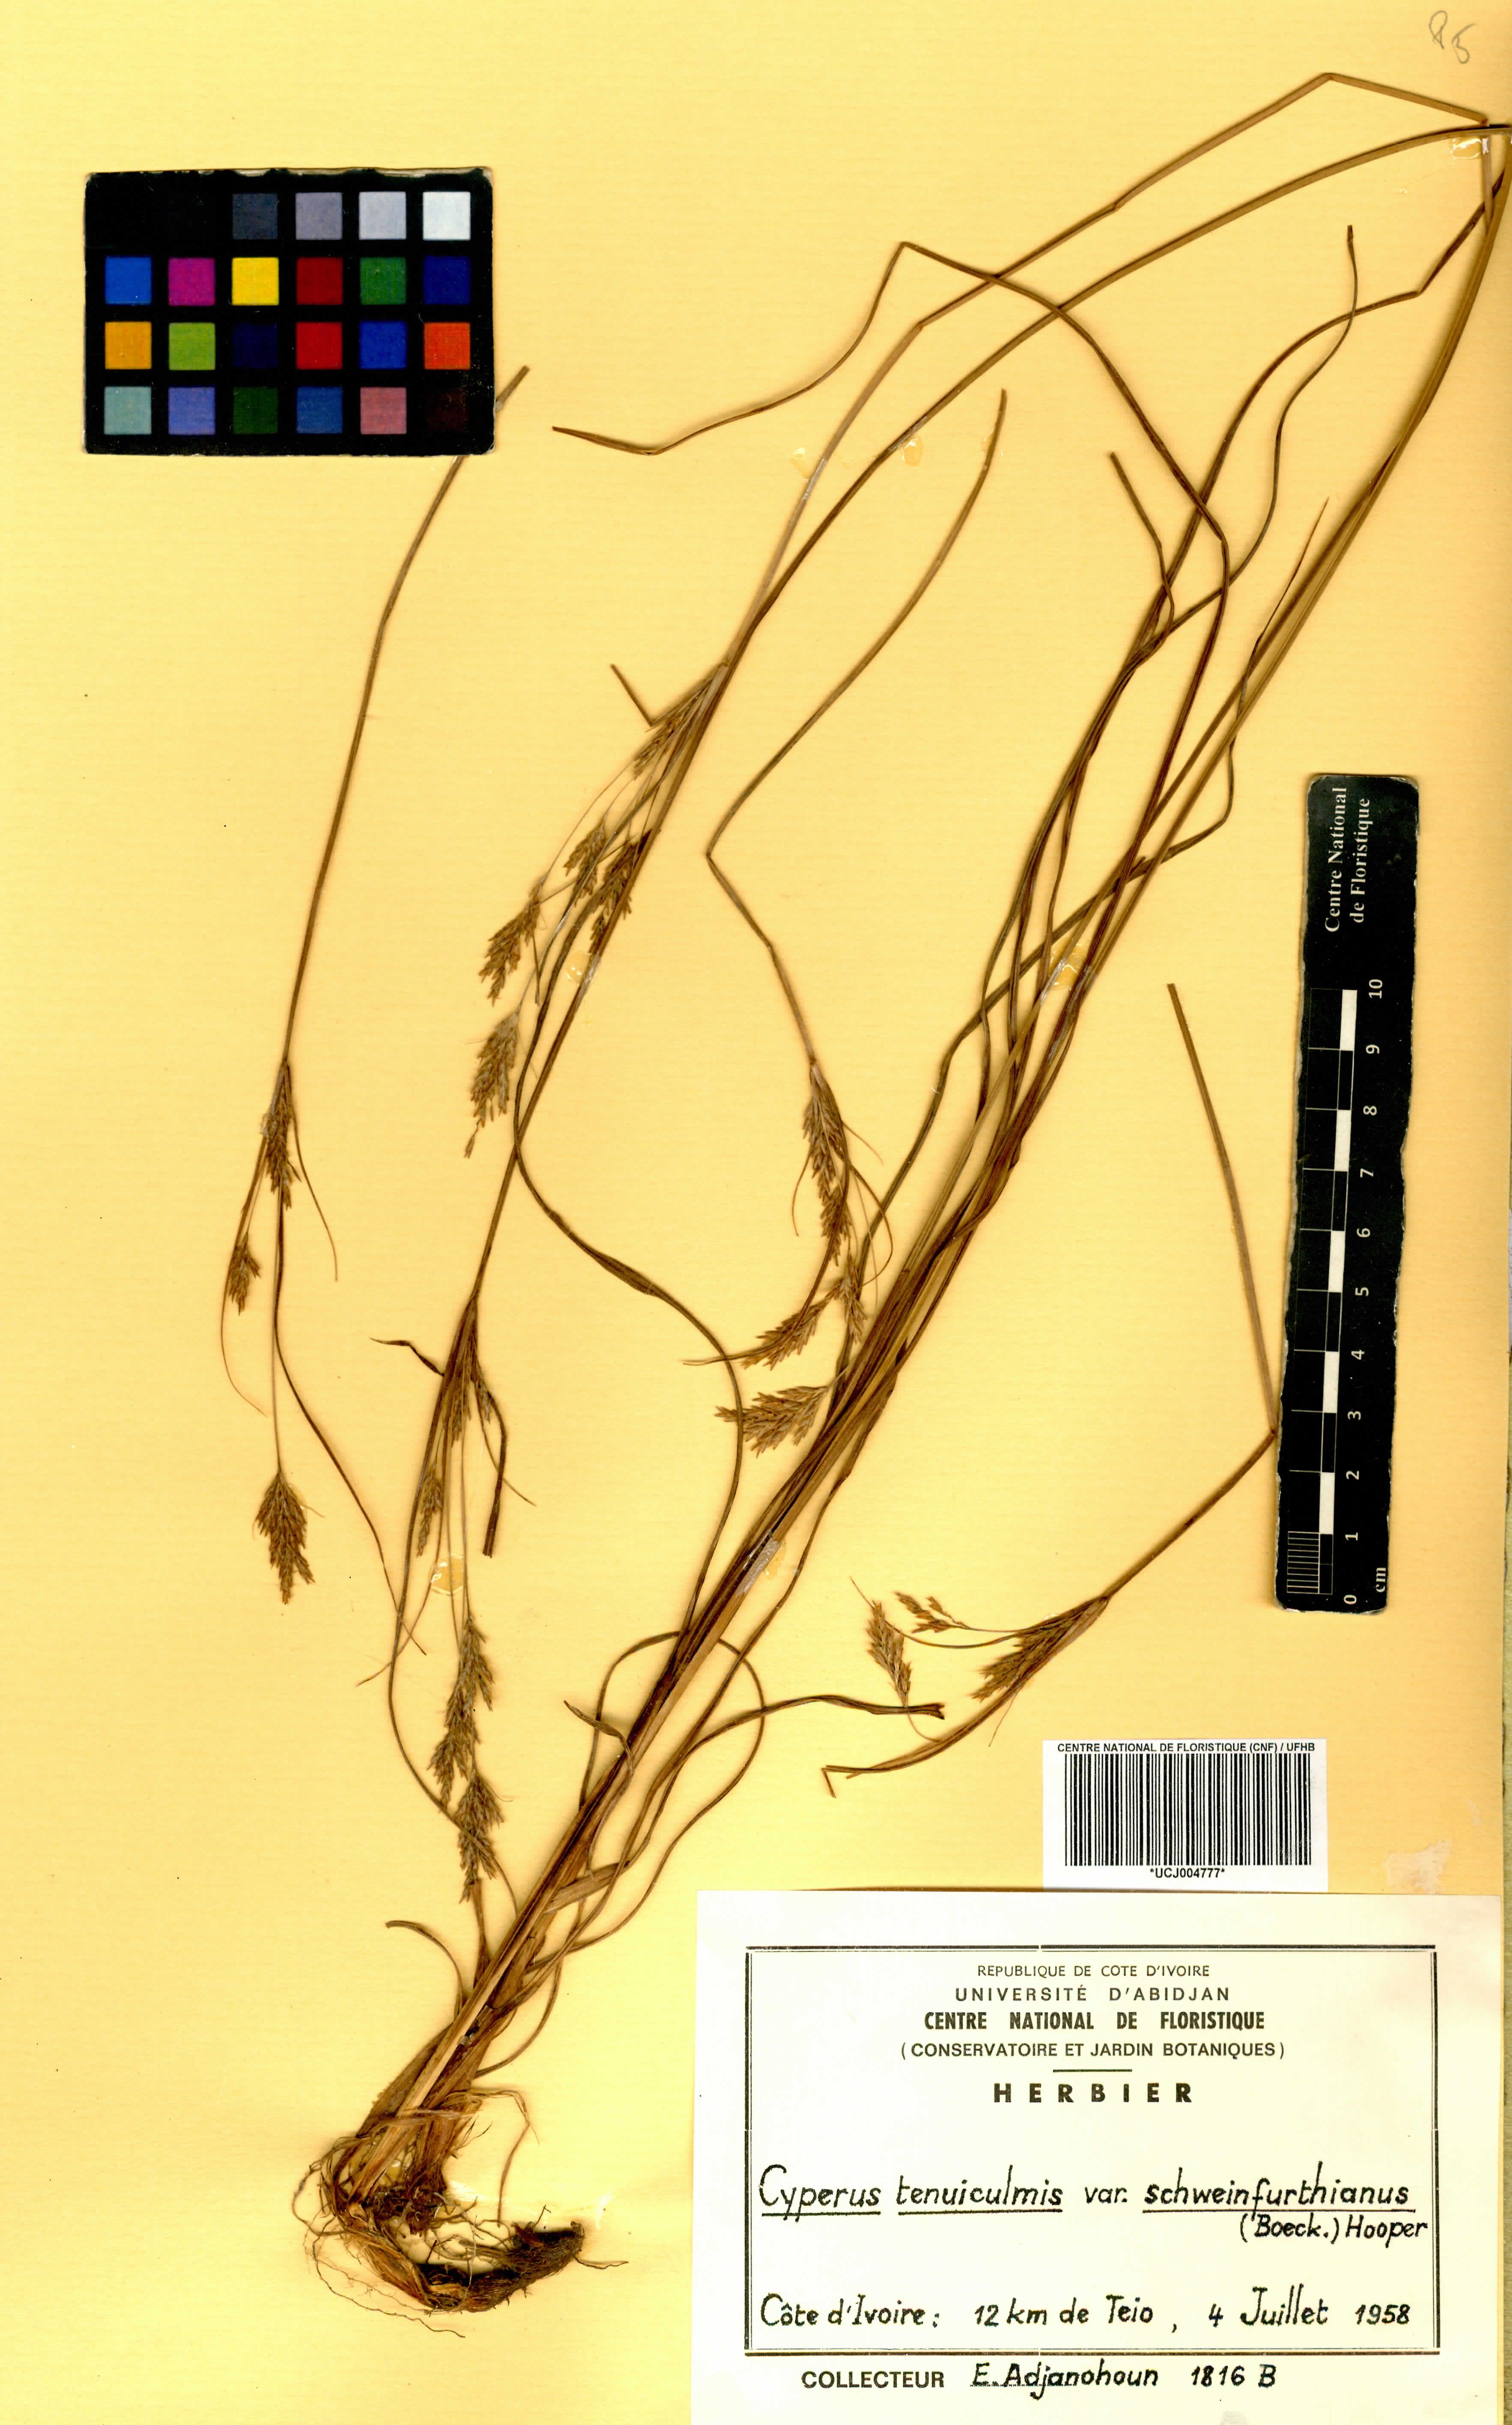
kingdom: Plantae
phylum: Tracheophyta
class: Liliopsida
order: Poales
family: Cyperaceae
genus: Cyperus
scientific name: Cyperus tenuiculmis
